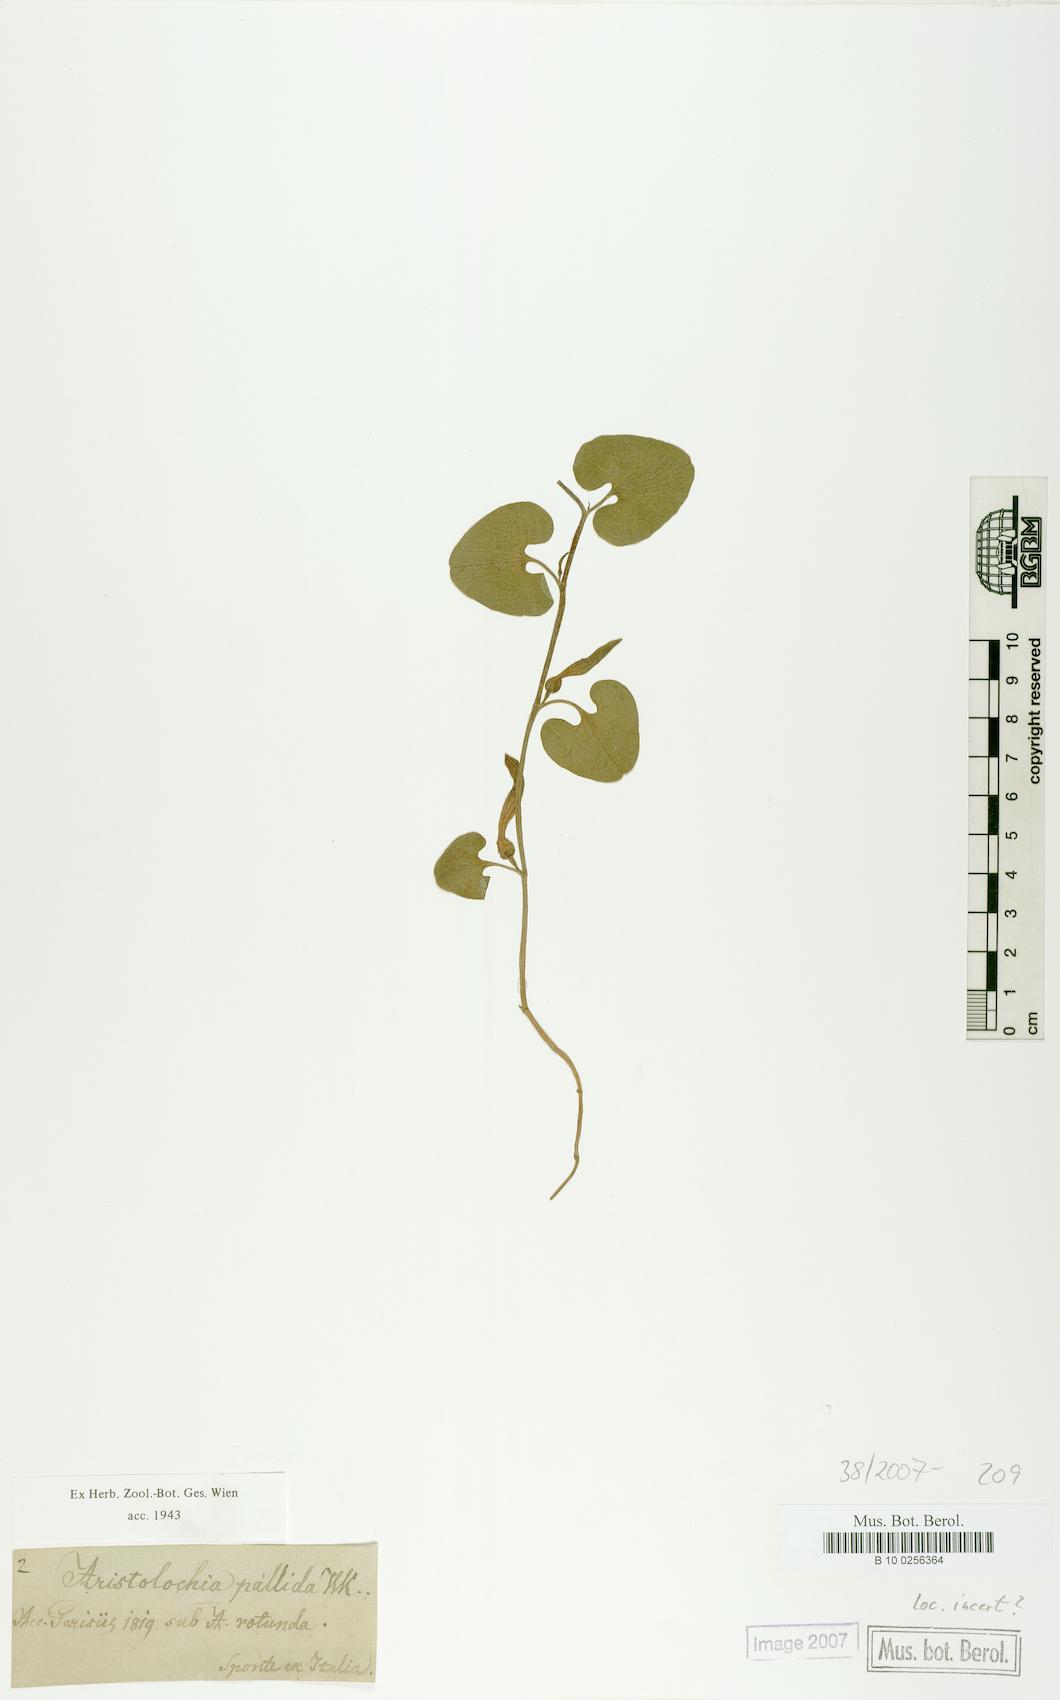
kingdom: Plantae
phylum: Tracheophyta
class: Magnoliopsida
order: Piperales
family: Aristolochiaceae
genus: Aristolochia
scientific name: Aristolochia pallida
